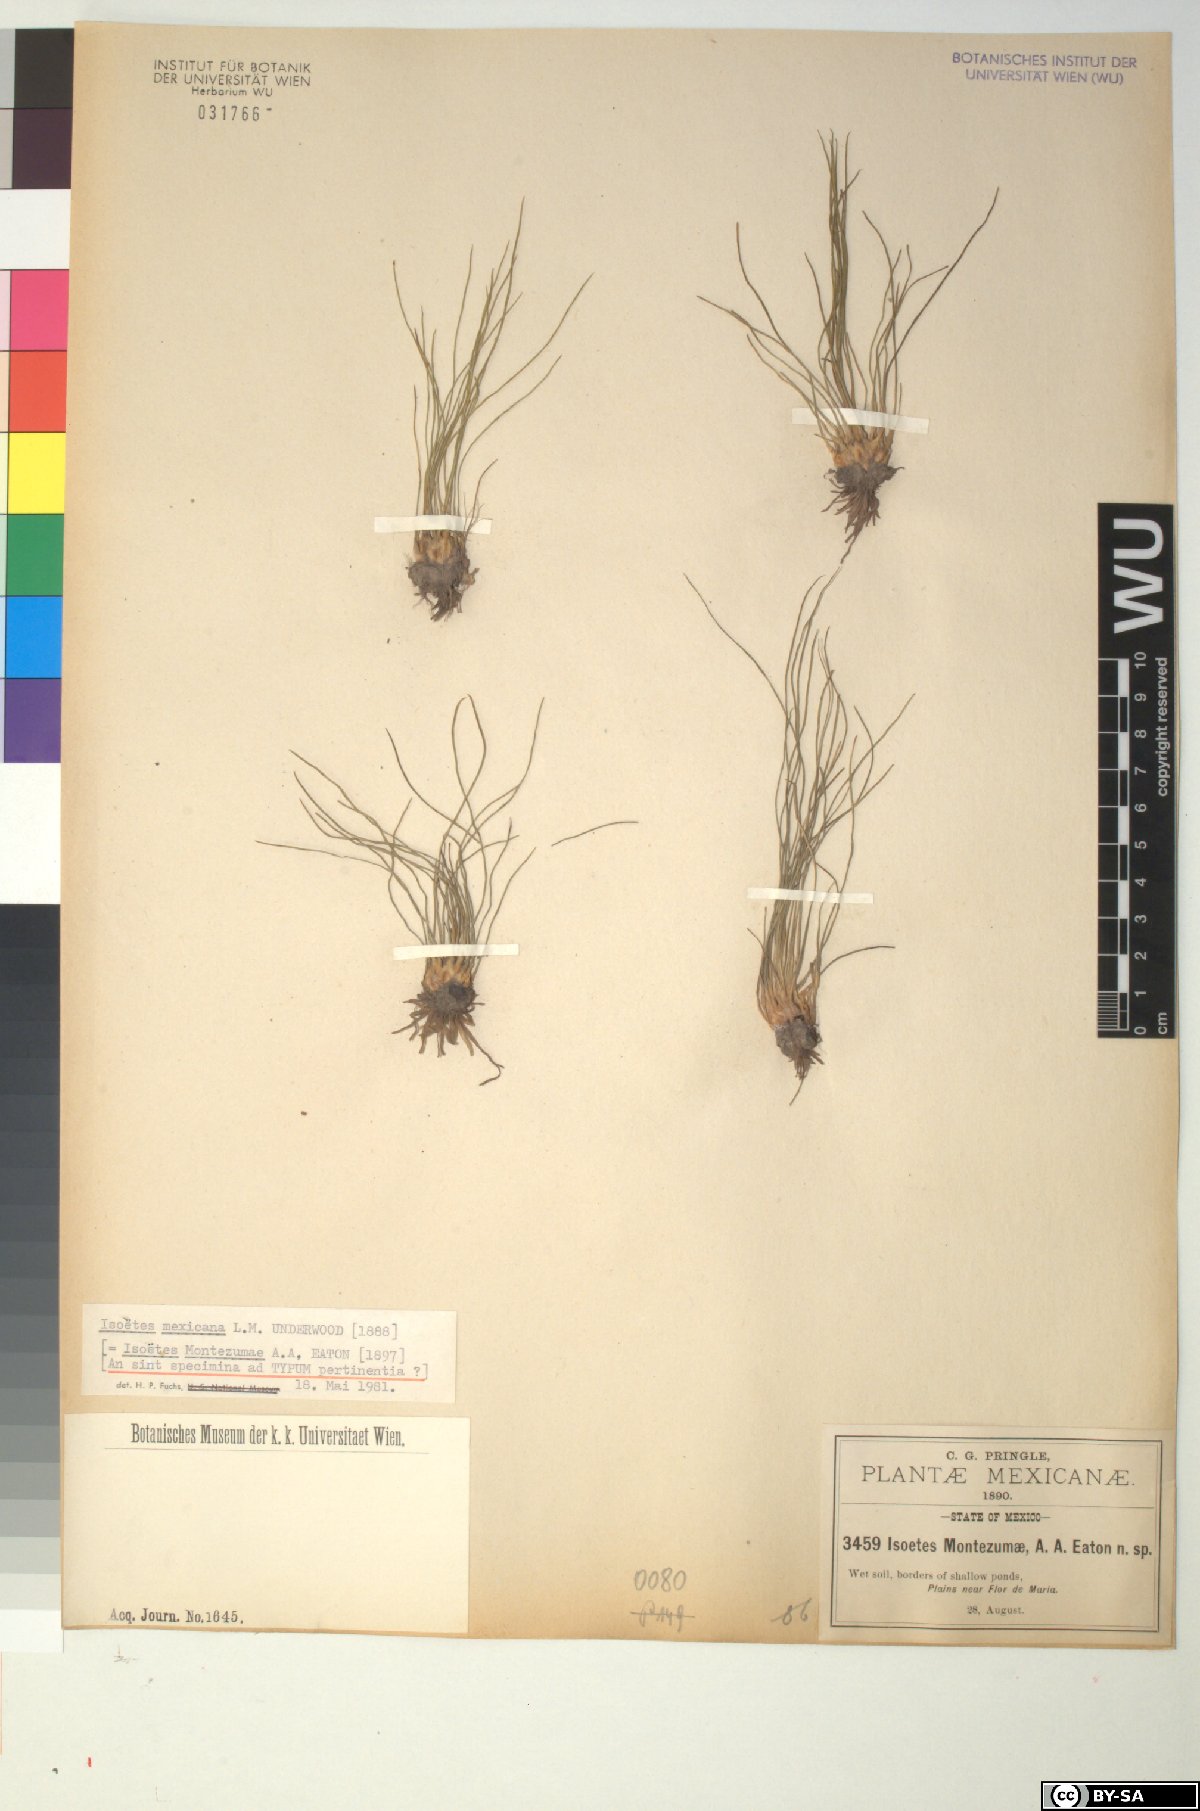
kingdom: Plantae
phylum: Tracheophyta
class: Lycopodiopsida
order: Isoetales
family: Isoetaceae
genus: Isoetes
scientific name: Isoetes montezumae
